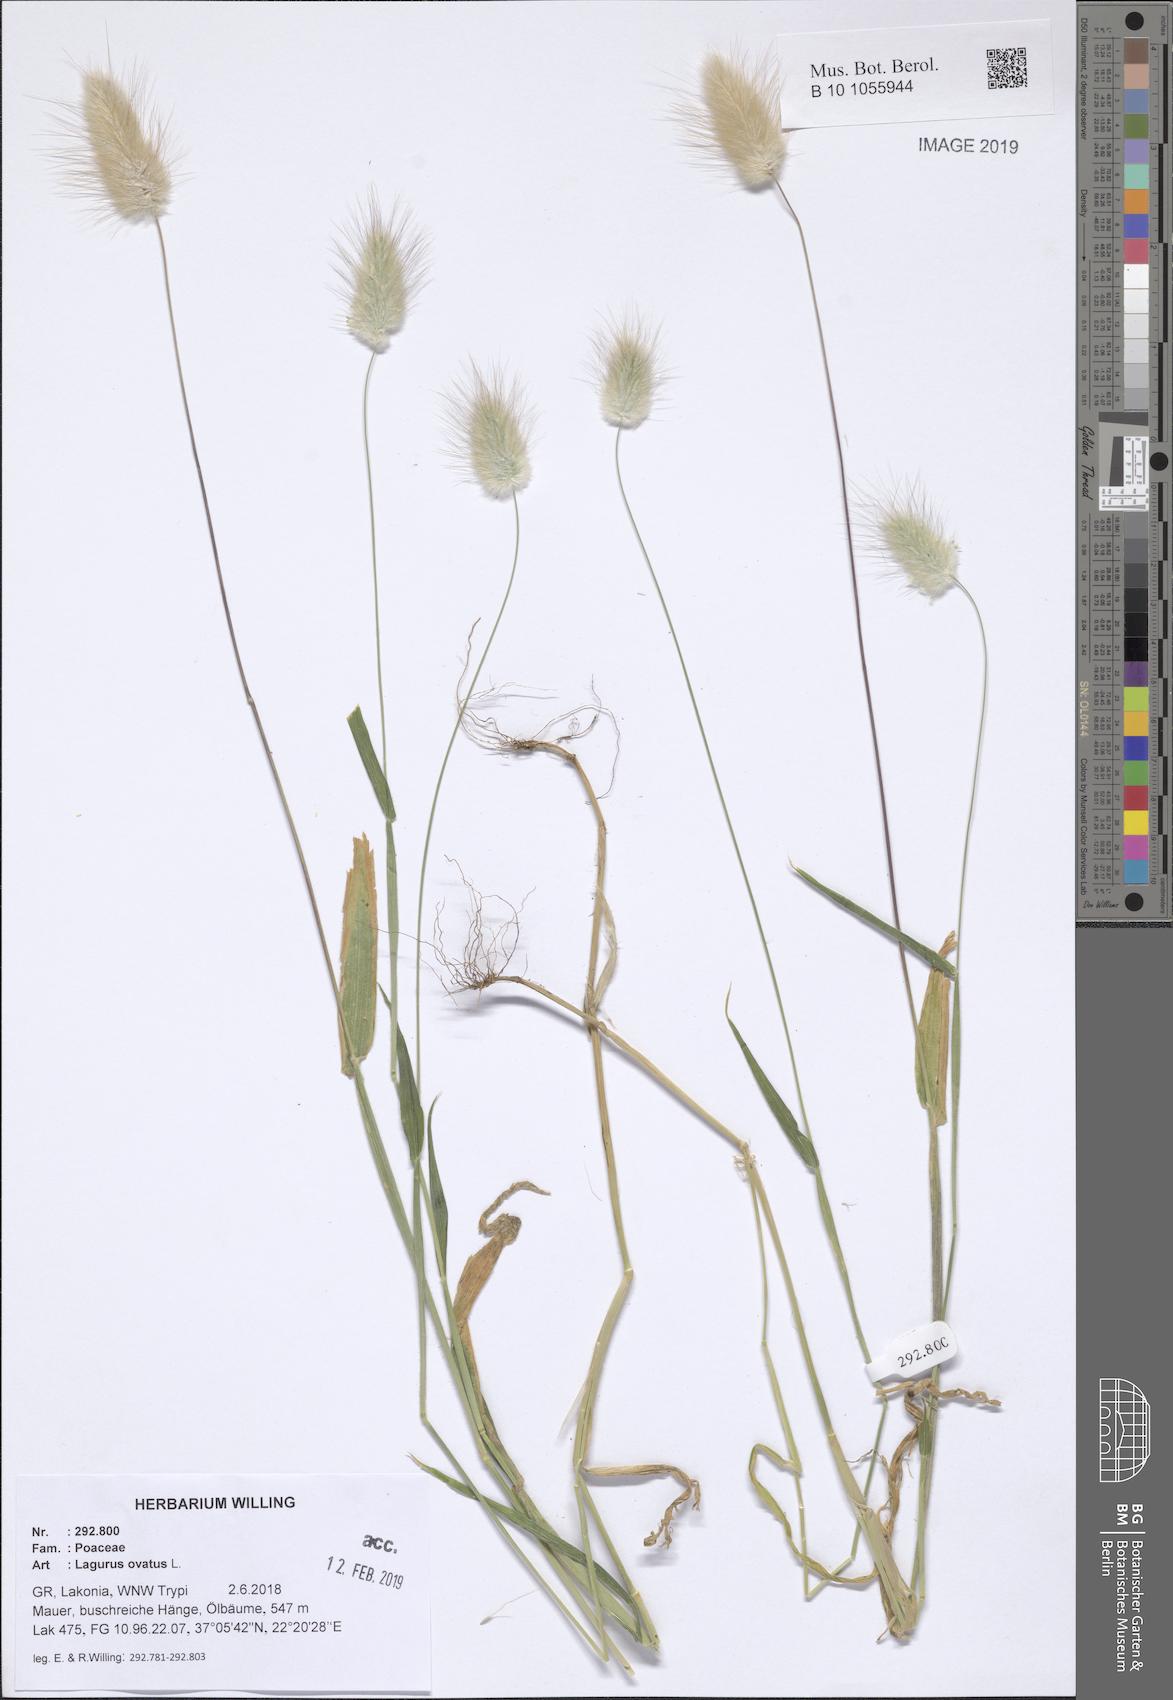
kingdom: Plantae
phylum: Tracheophyta
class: Liliopsida
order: Poales
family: Poaceae
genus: Lagurus
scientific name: Lagurus ovatus
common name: Hare's-tail
